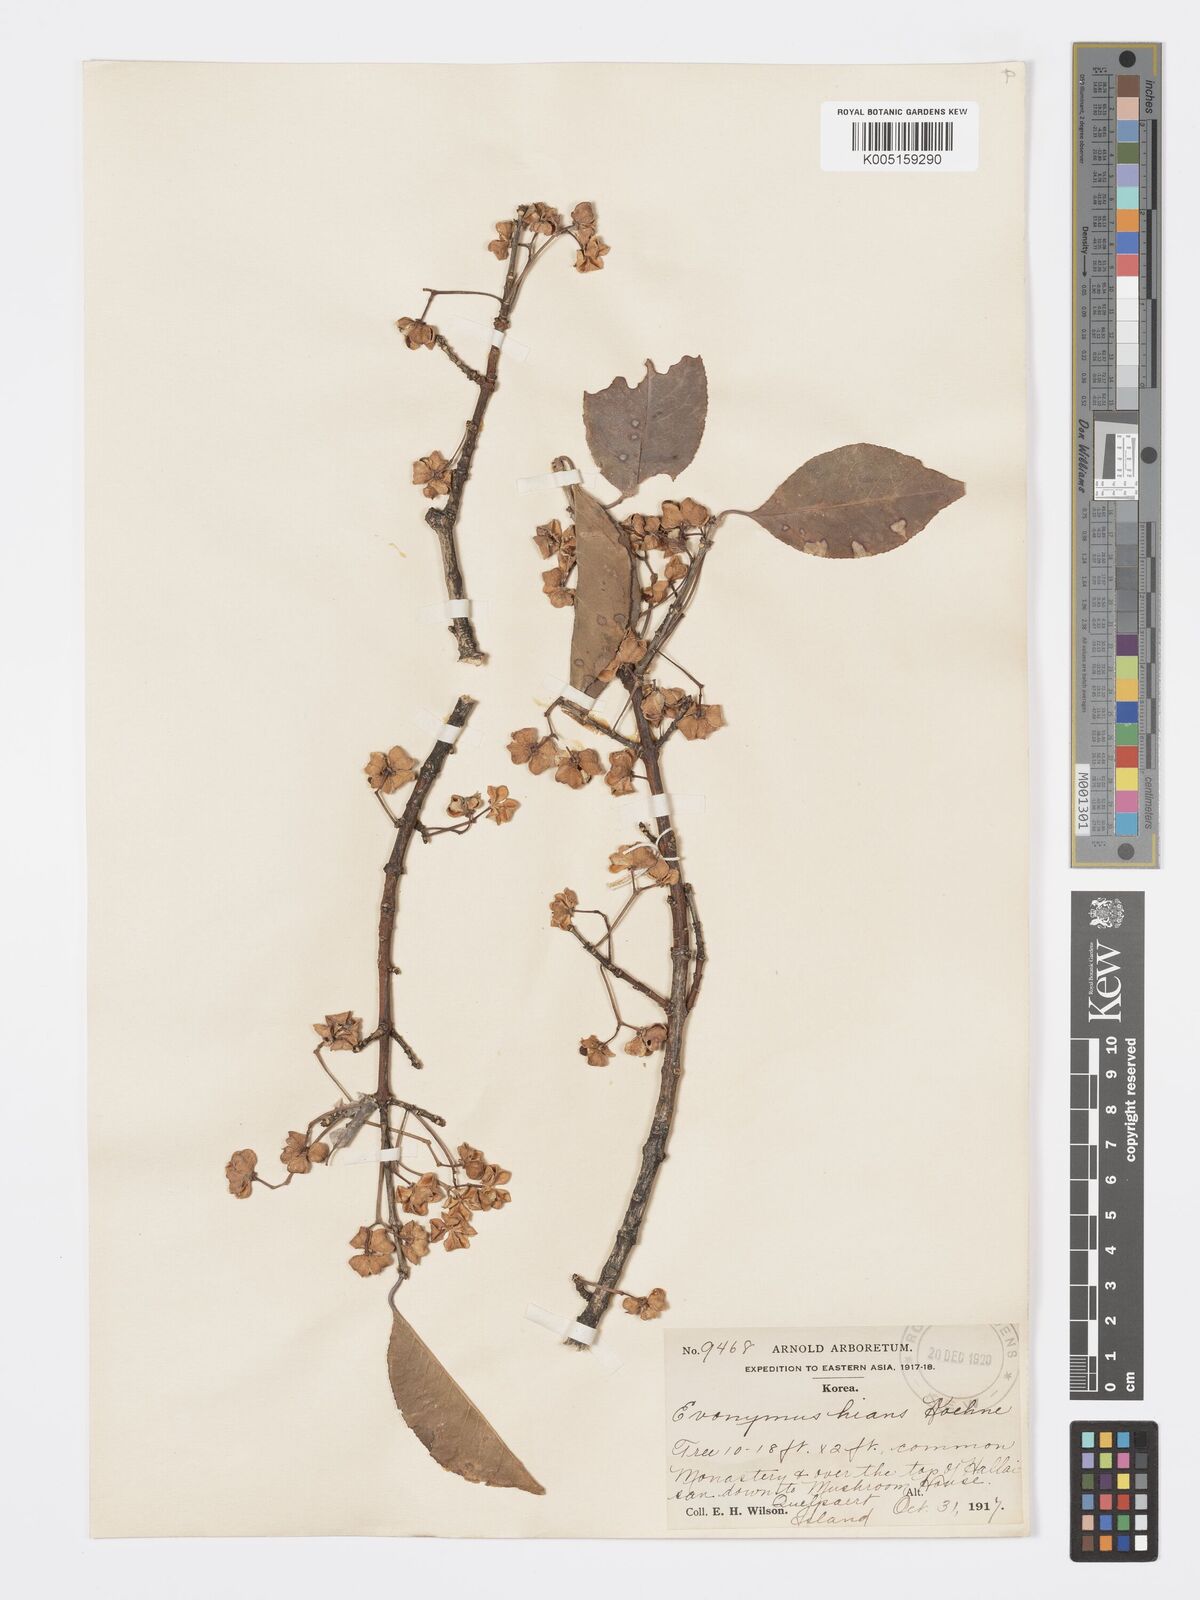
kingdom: Plantae
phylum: Tracheophyta
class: Magnoliopsida
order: Celastrales
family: Celastraceae
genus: Euonymus
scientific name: Euonymus hamiltonianus
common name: Hamilton's spindletree
